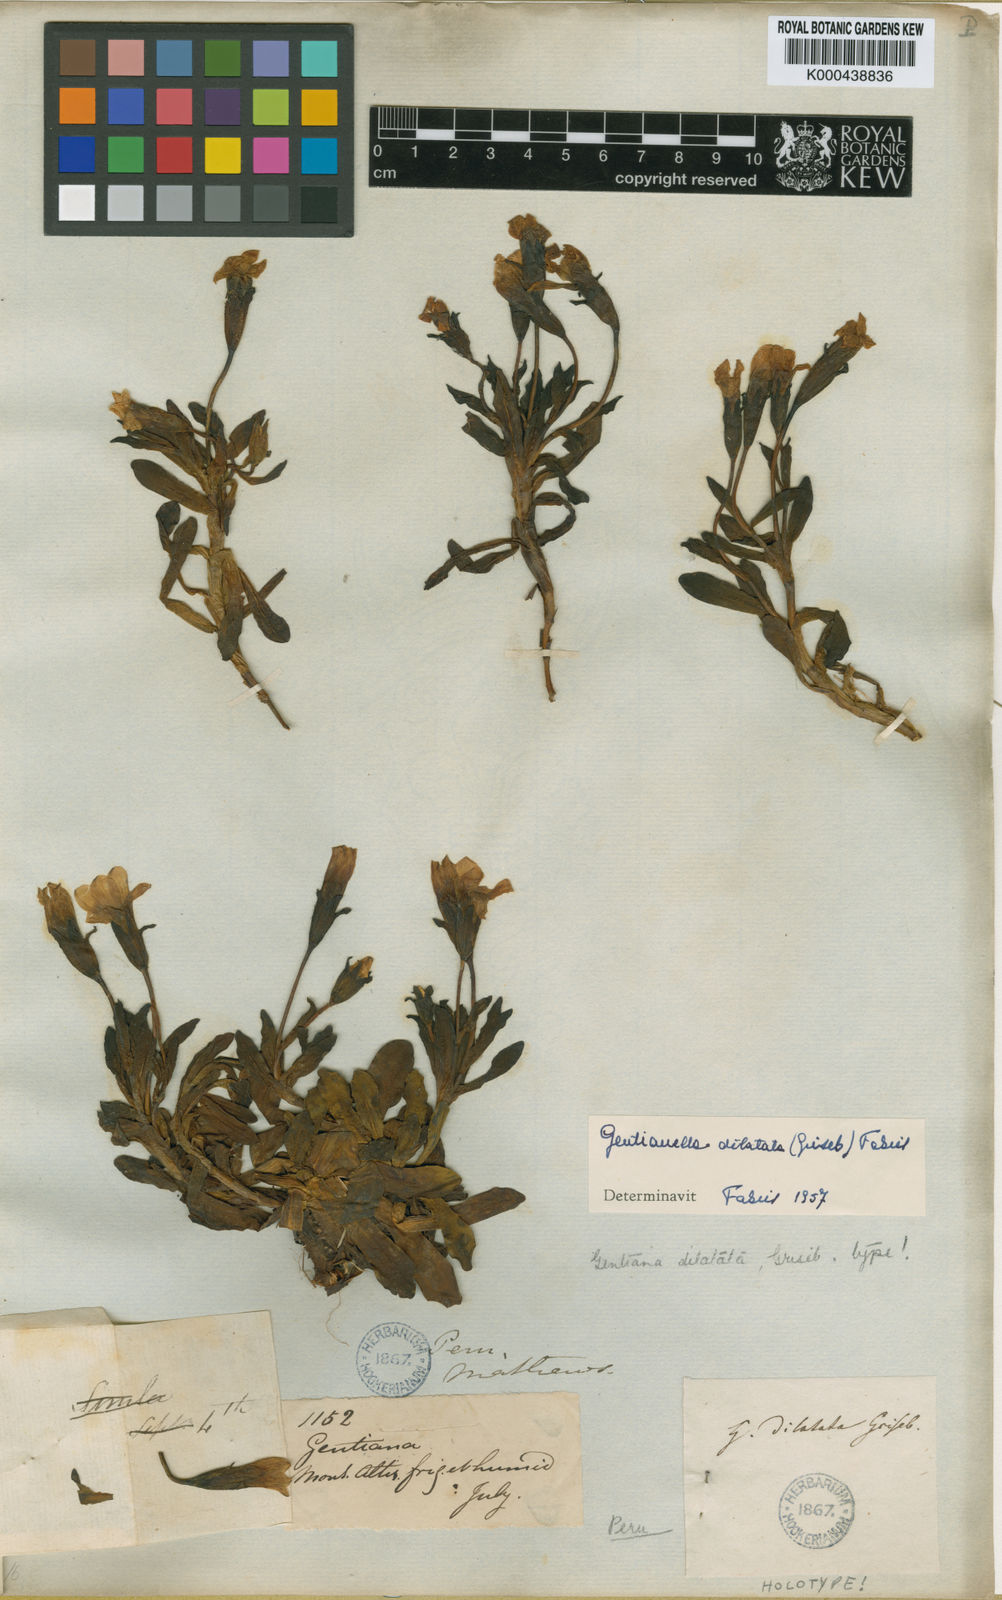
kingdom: Plantae
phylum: Tracheophyta
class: Magnoliopsida
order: Gentianales
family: Gentianaceae
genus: Gentianella
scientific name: Gentianella dasythamna
